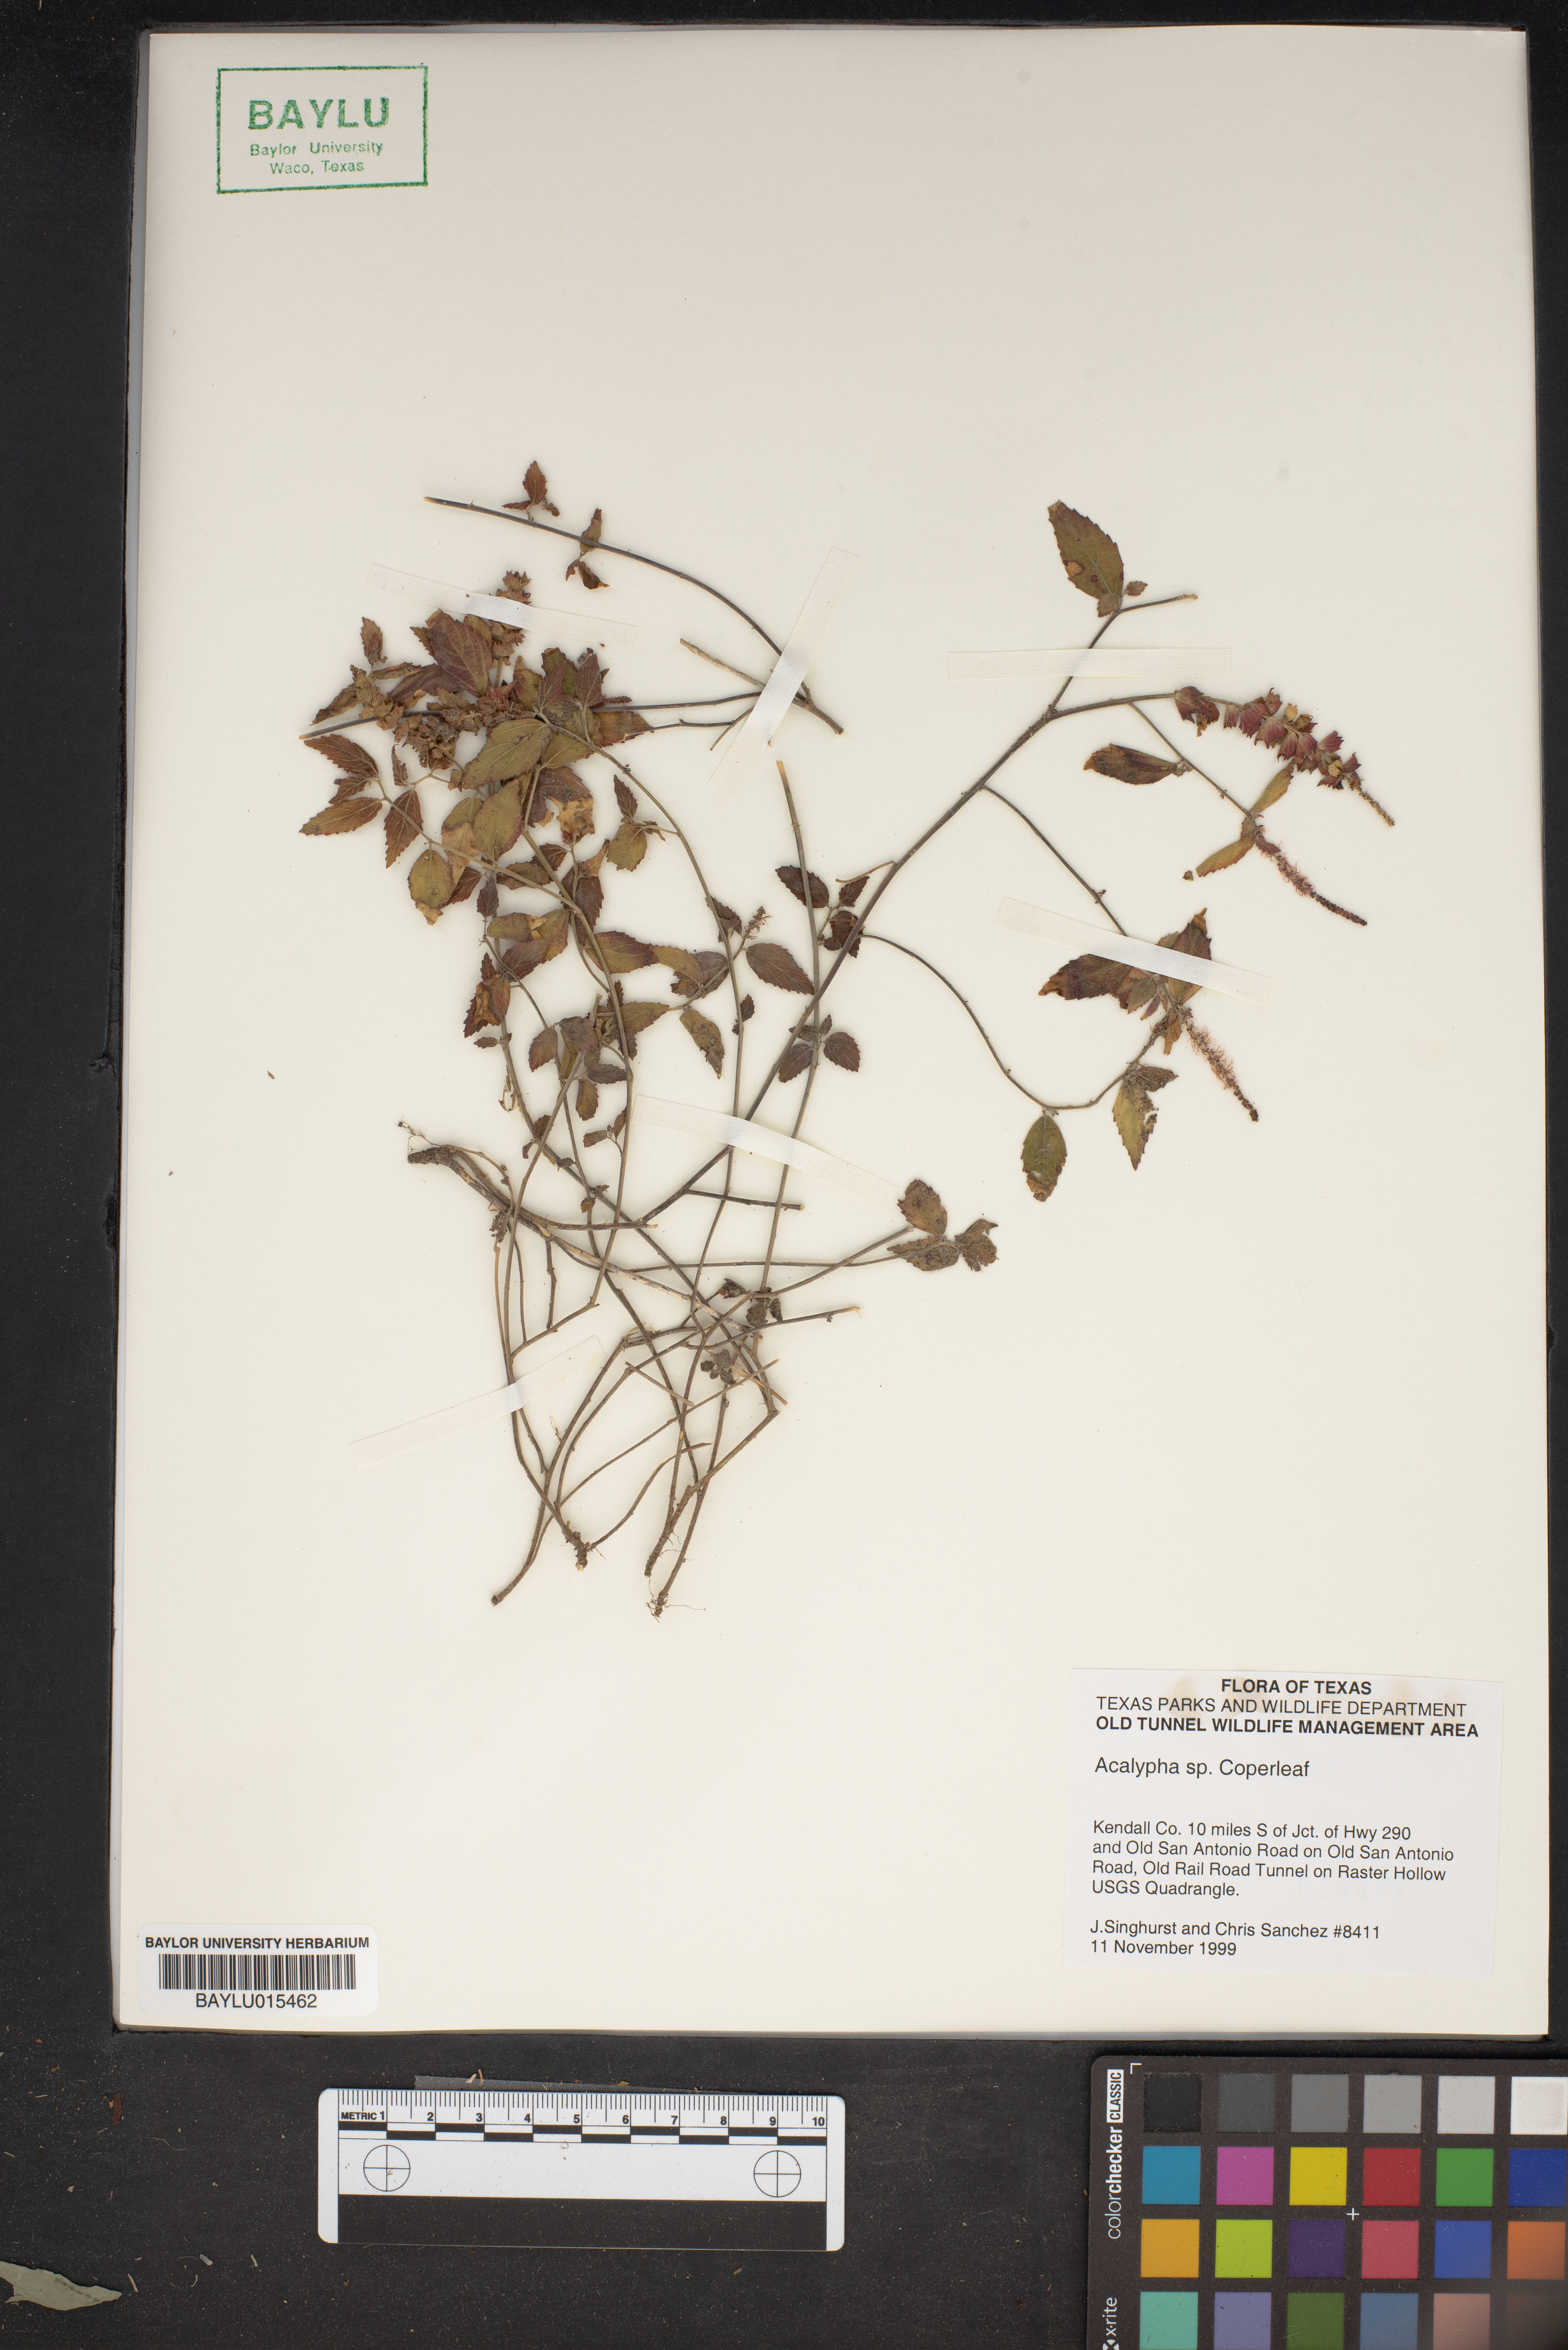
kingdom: Plantae
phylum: Tracheophyta
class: Magnoliopsida
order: Malpighiales
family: Euphorbiaceae
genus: Acalypha
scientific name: Acalypha
